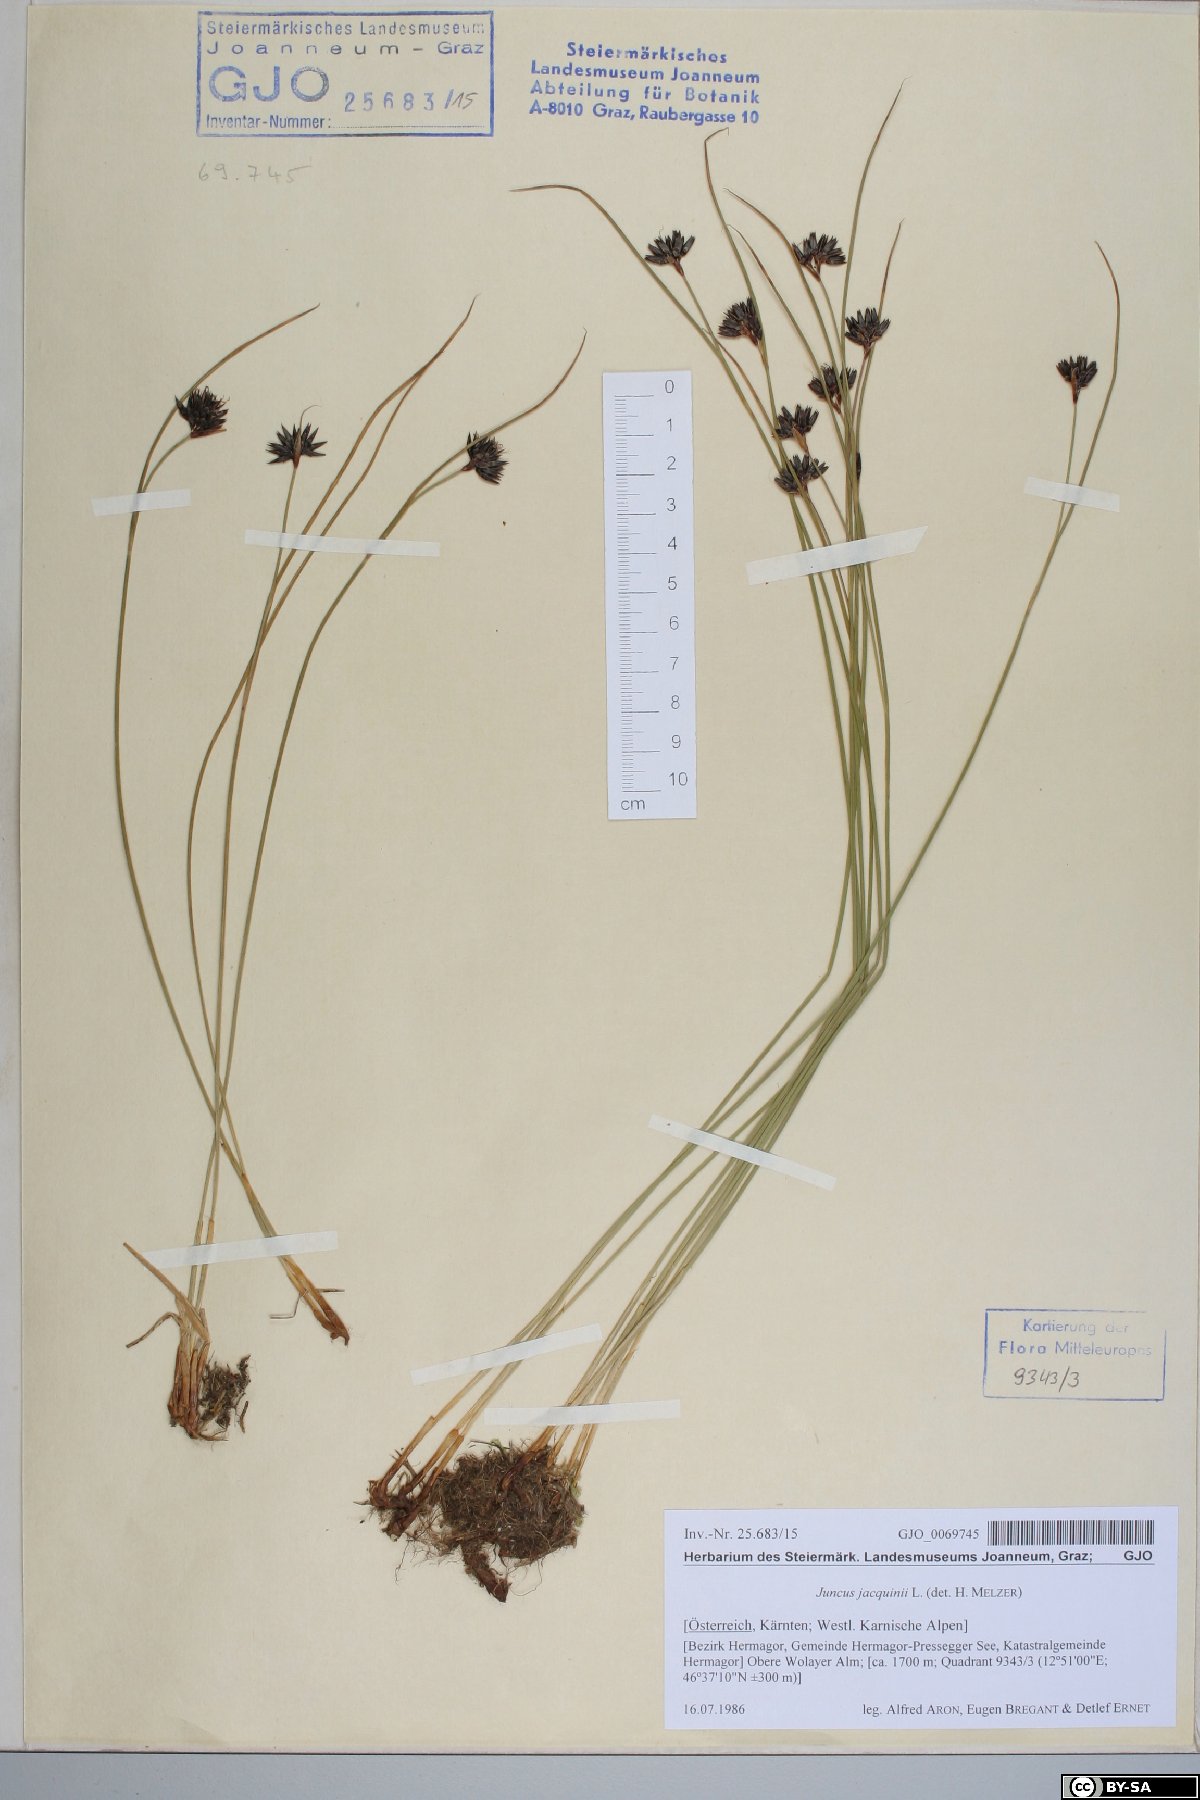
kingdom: Plantae
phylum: Tracheophyta
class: Liliopsida
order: Poales
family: Juncaceae
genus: Juncus
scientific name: Juncus jacquinii
